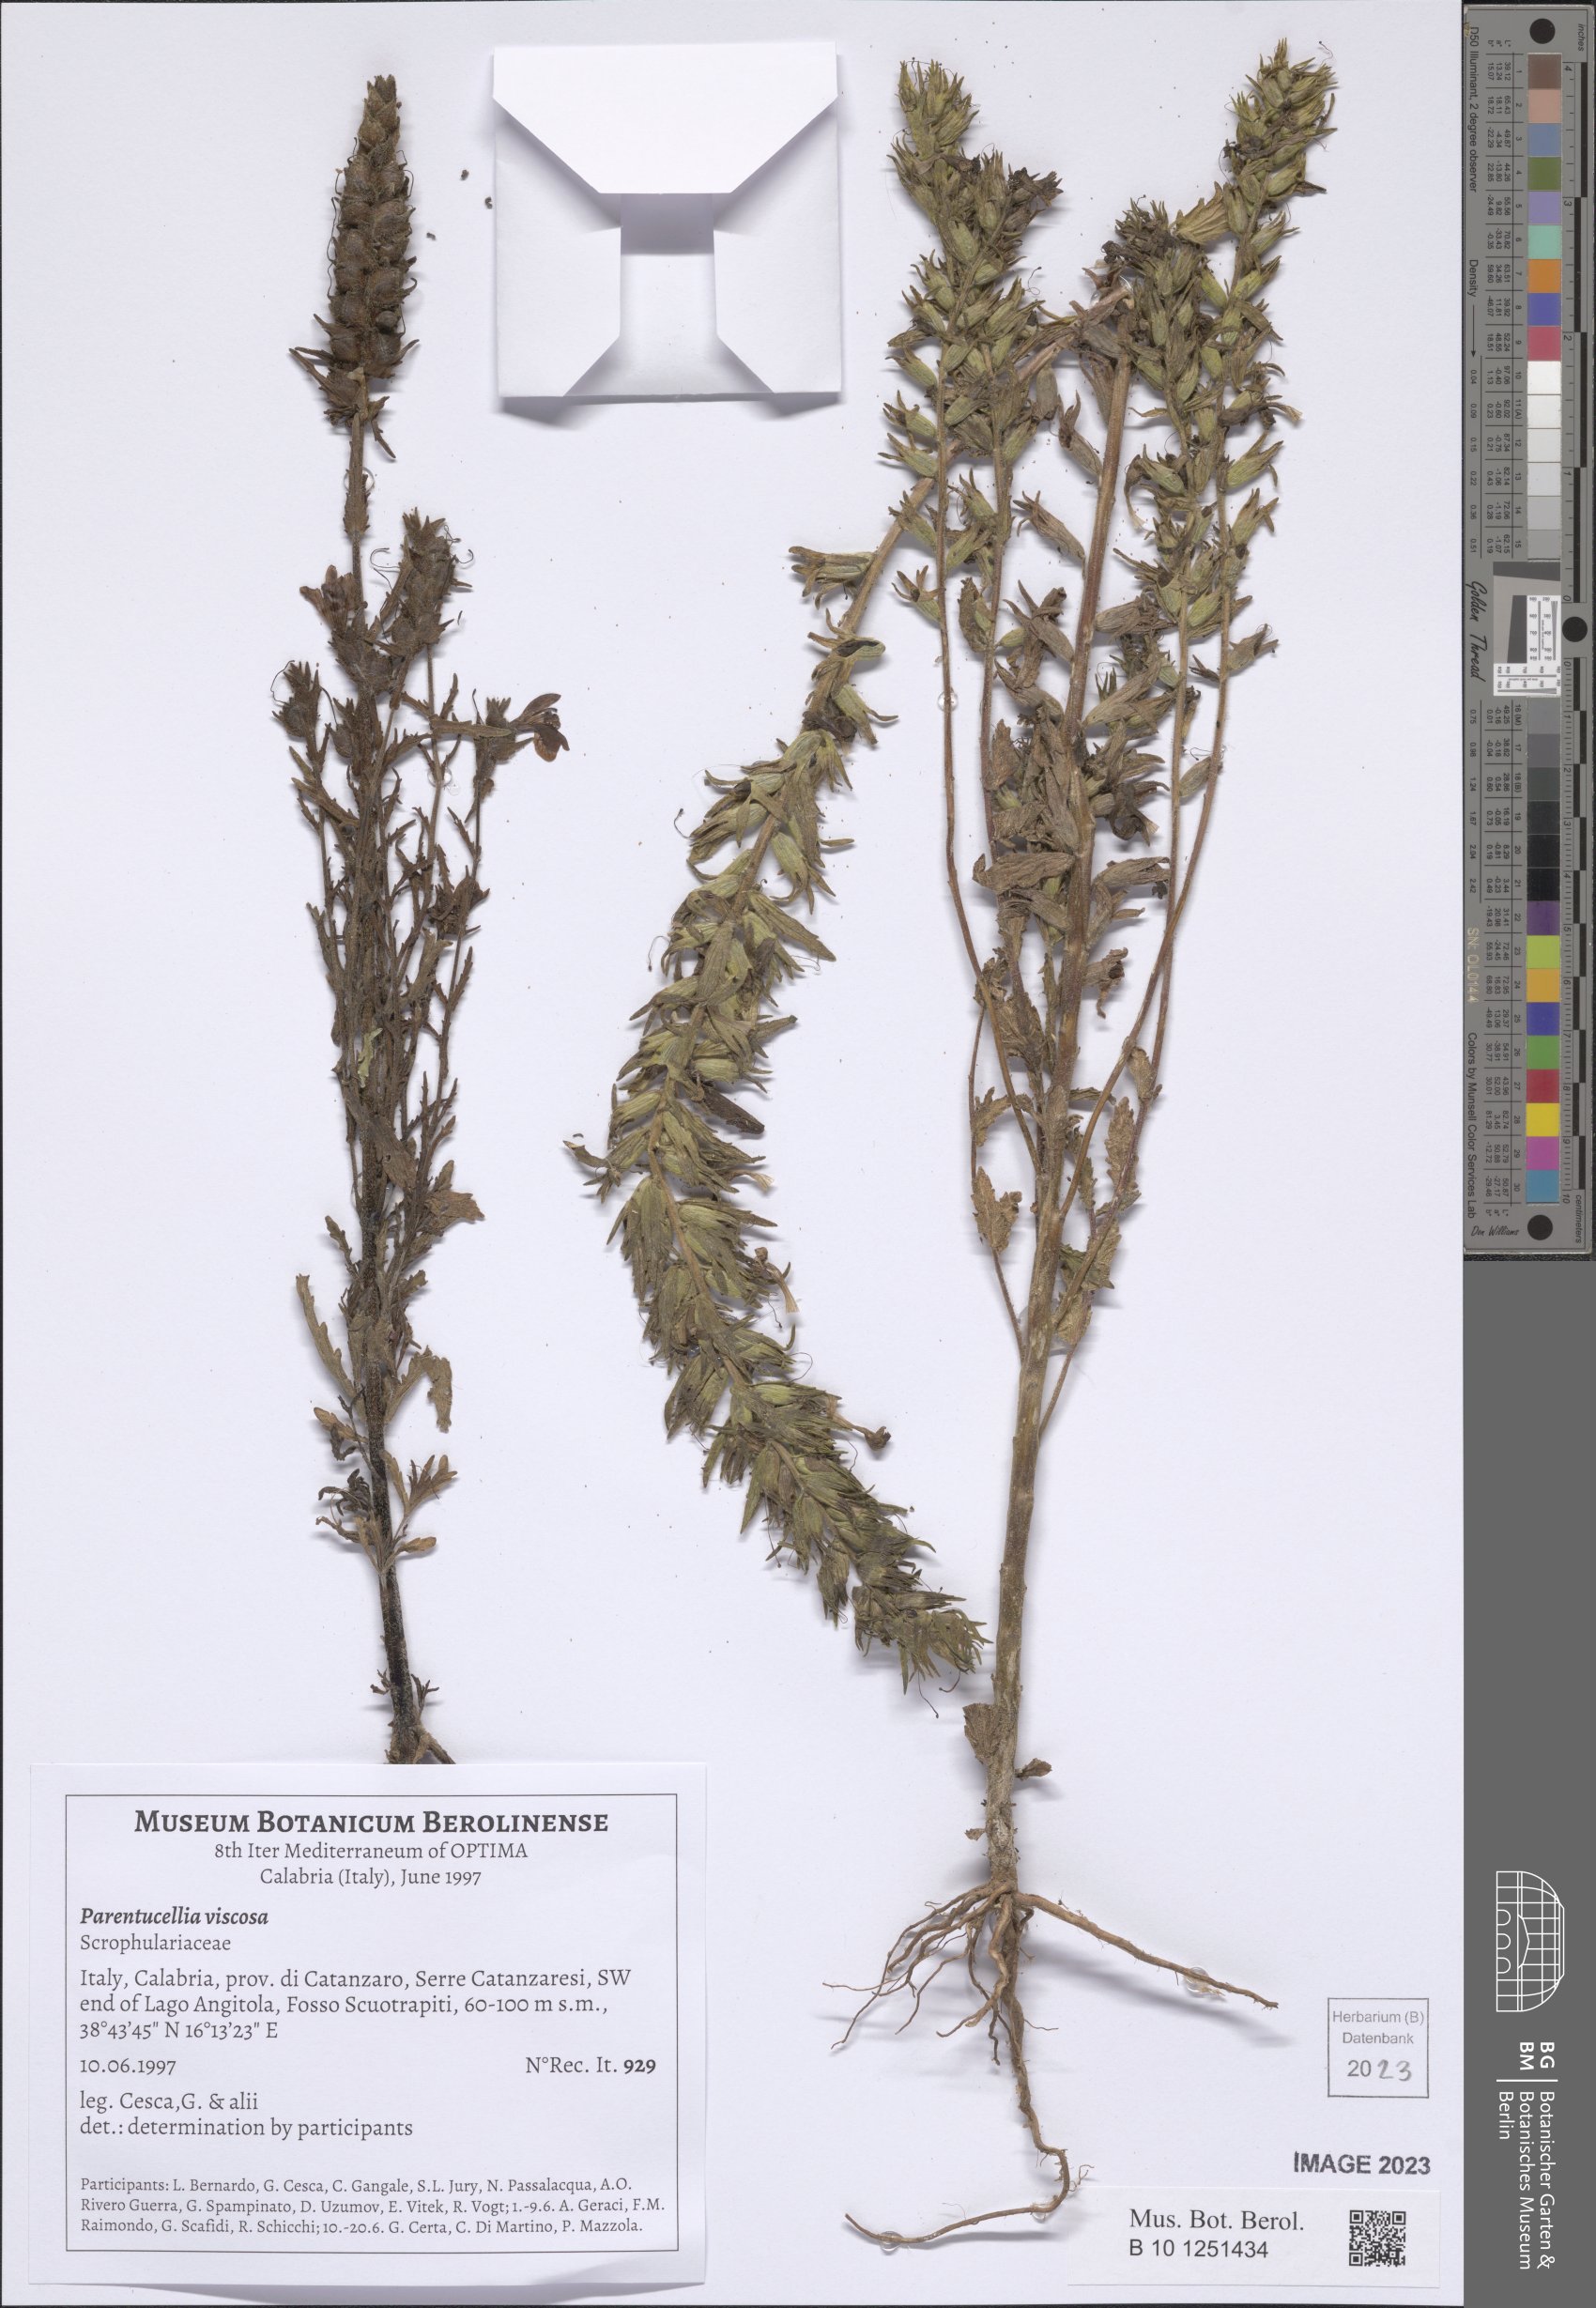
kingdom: Plantae
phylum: Tracheophyta
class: Magnoliopsida
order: Lamiales
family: Orobanchaceae
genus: Bellardia
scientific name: Bellardia viscosa
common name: Sticky parentucellia
